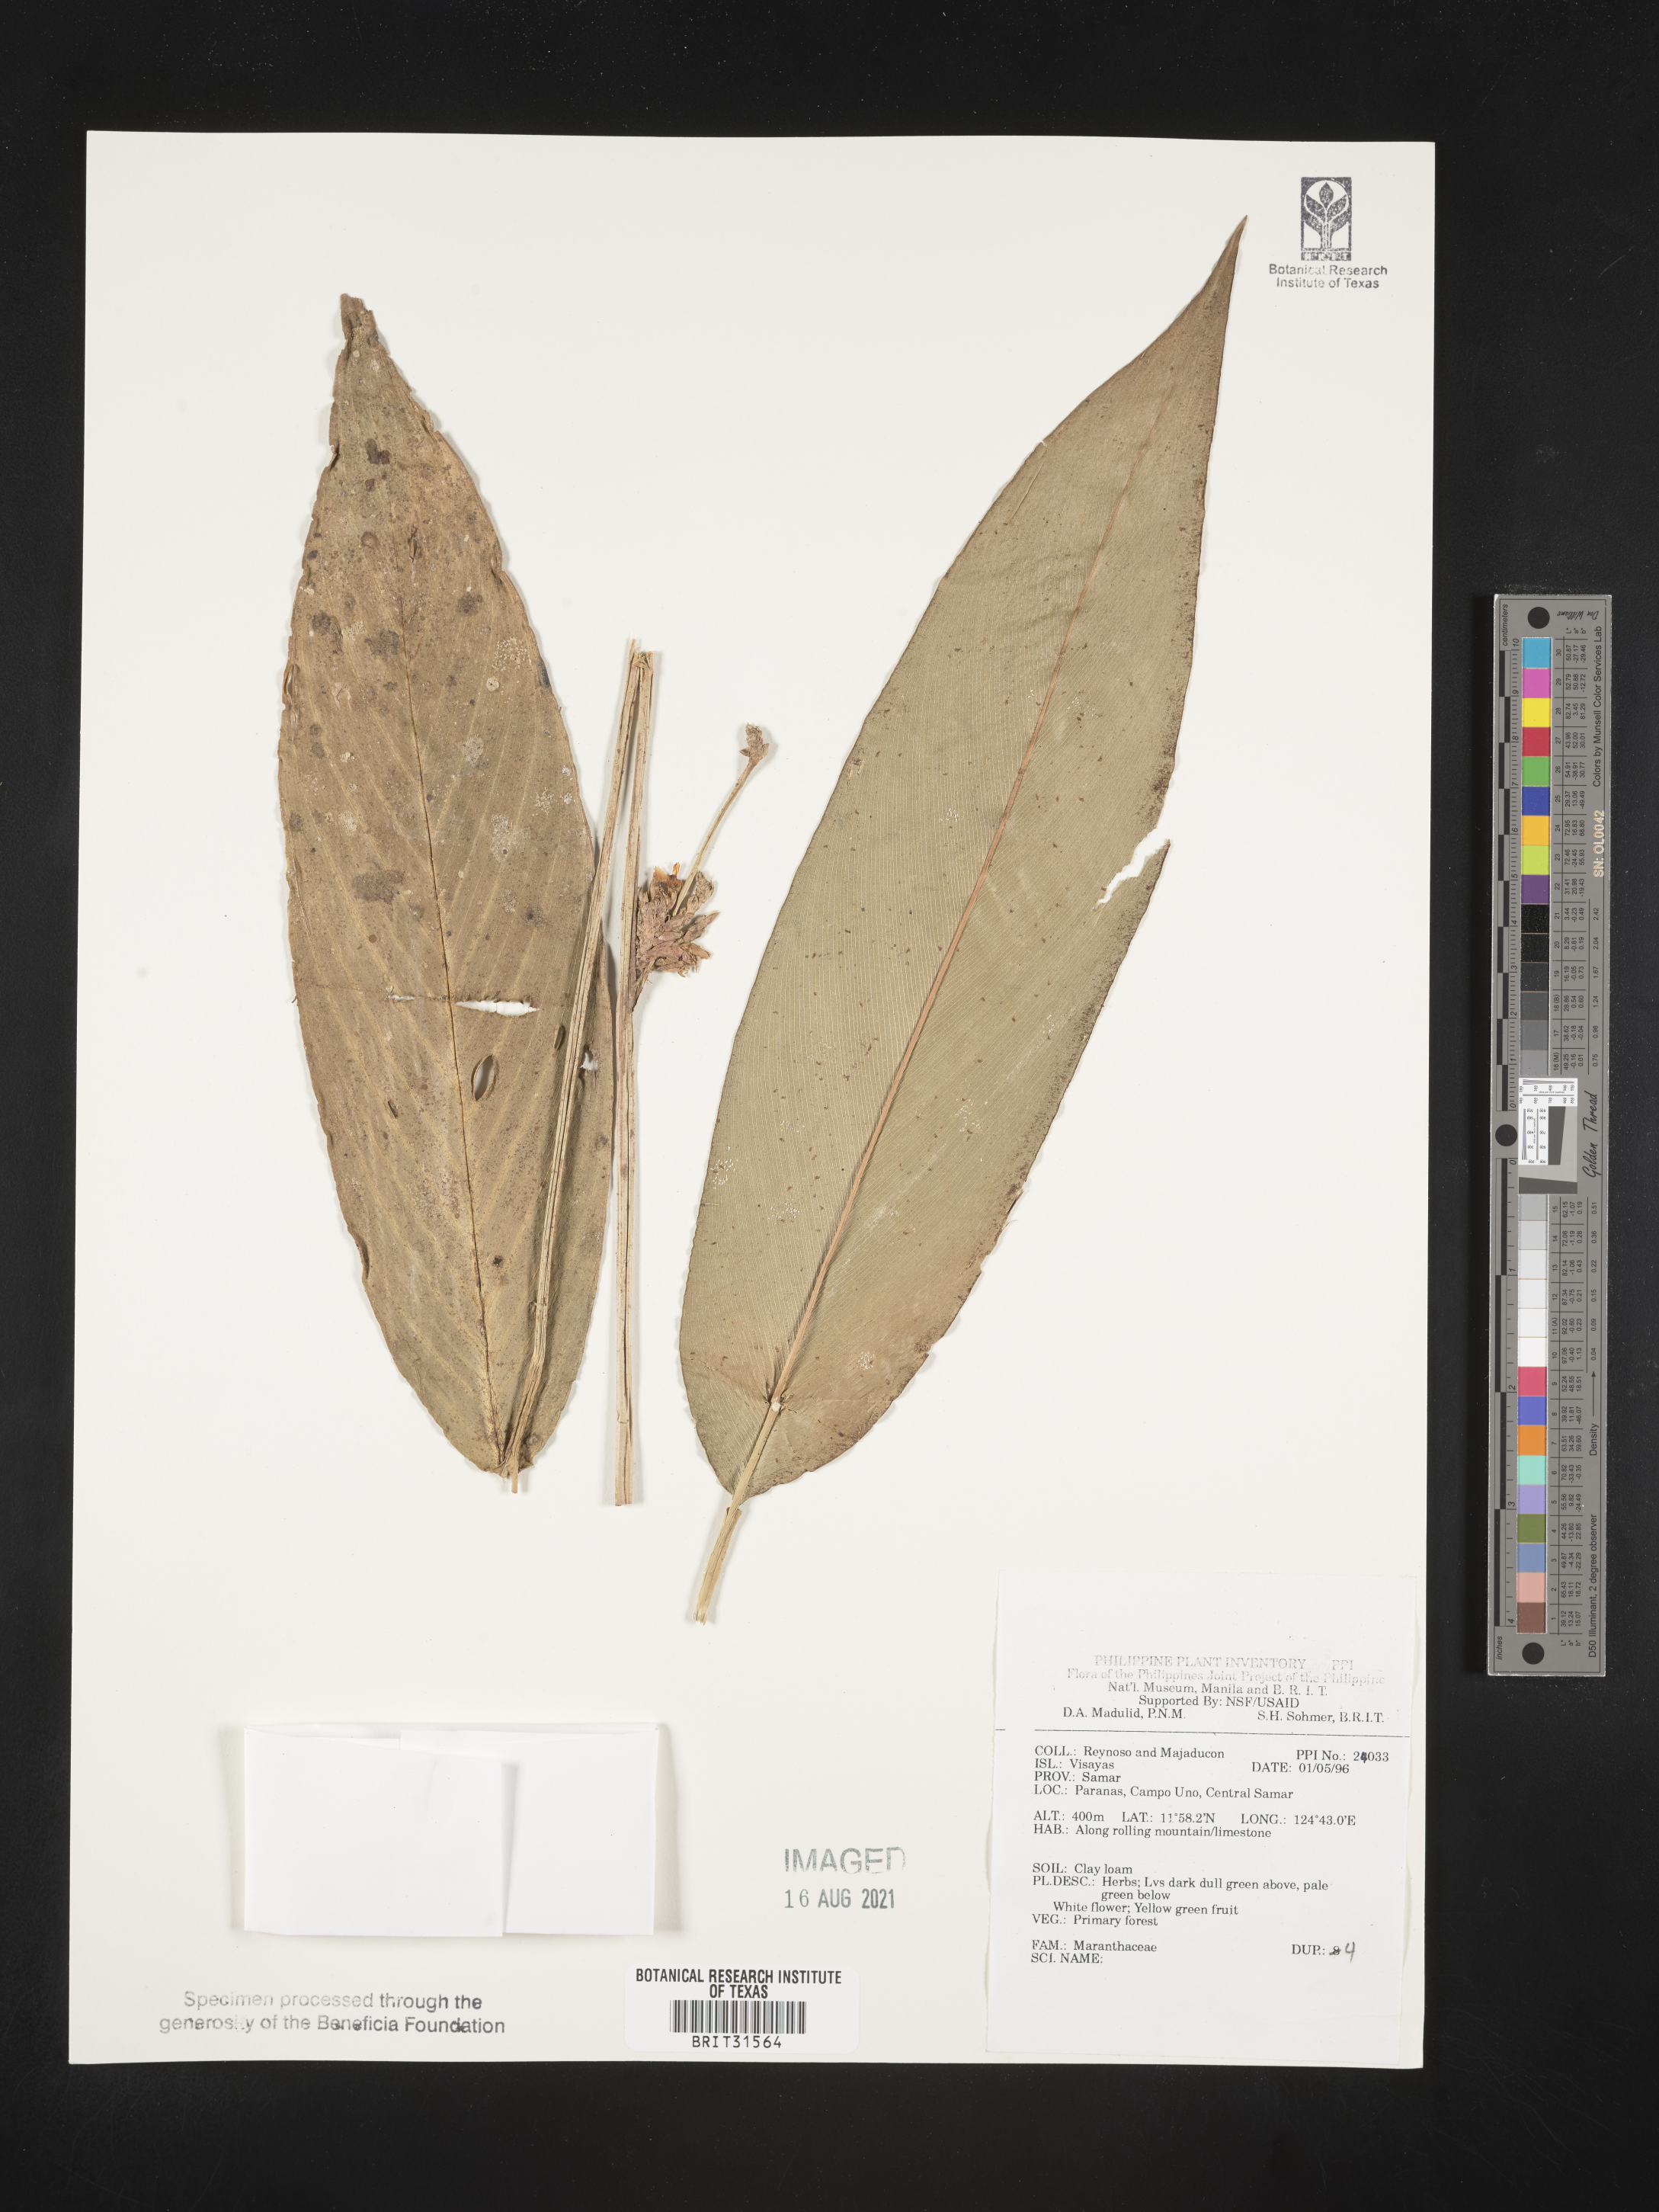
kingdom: Plantae
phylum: Tracheophyta
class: Liliopsida
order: Zingiberales
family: Marantaceae
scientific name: Marantaceae
